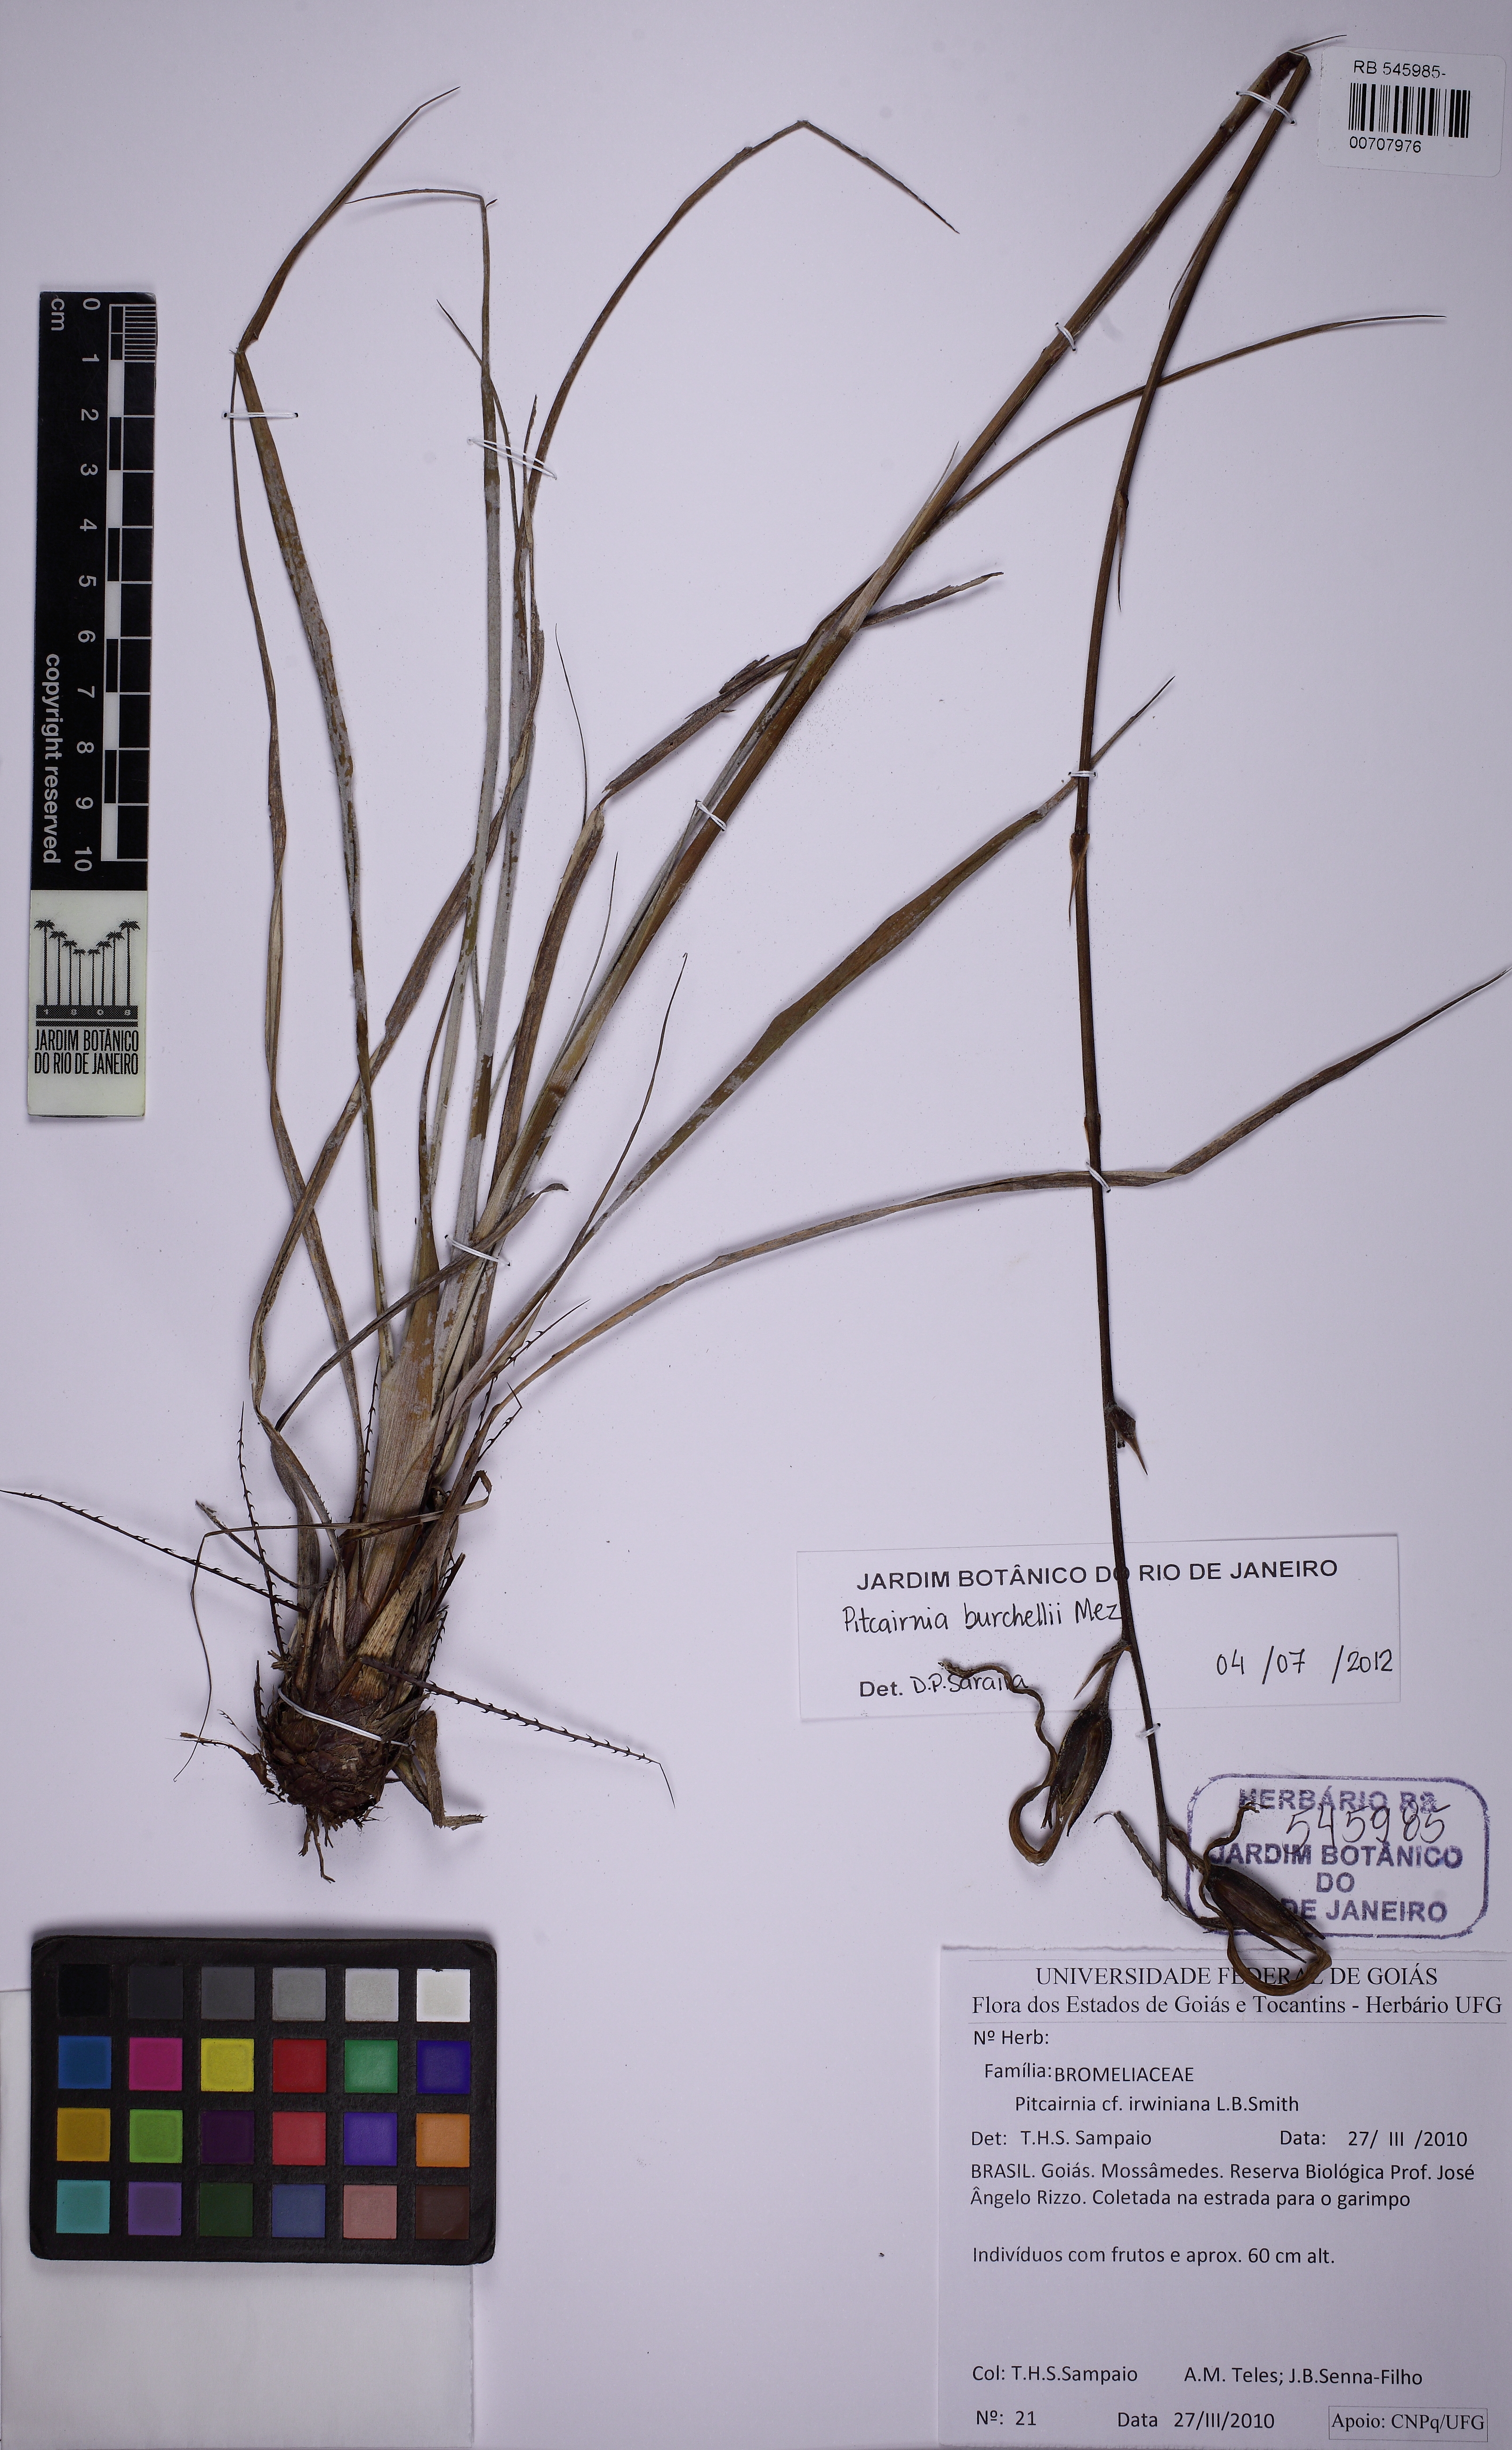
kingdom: Plantae
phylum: Tracheophyta
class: Liliopsida
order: Poales
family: Bromeliaceae
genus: Pitcairnia
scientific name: Pitcairnia lanuginosa
